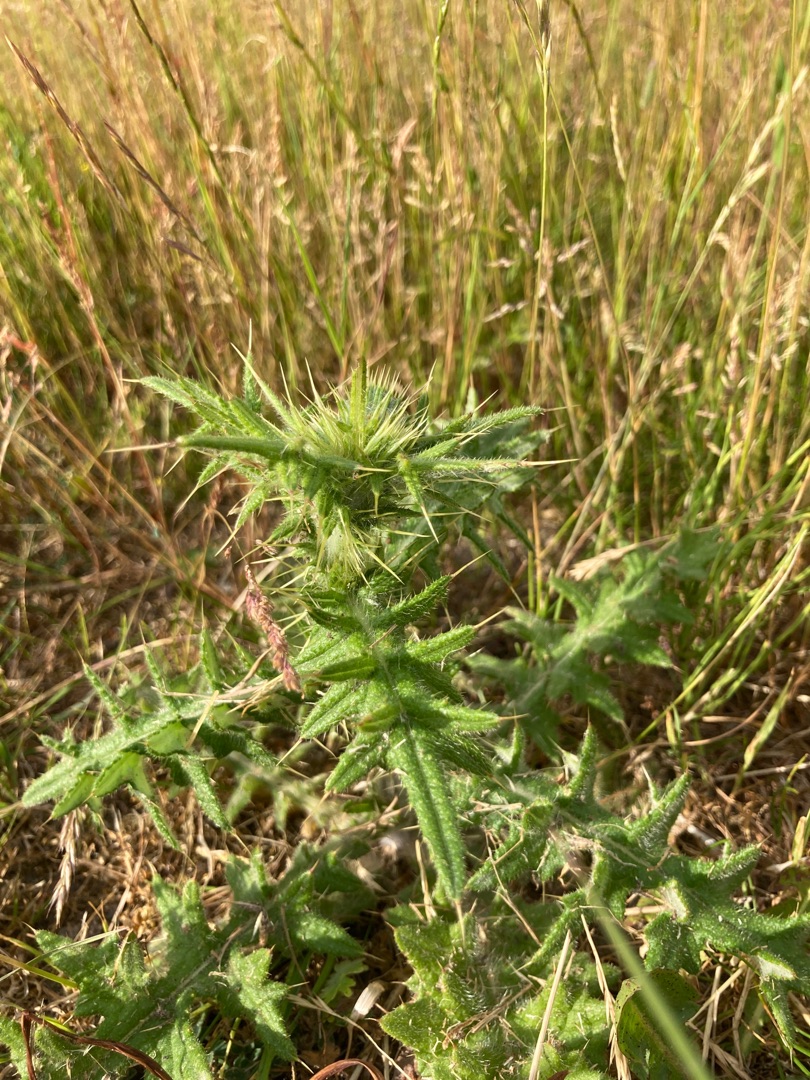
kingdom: Plantae
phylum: Tracheophyta
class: Magnoliopsida
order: Asterales
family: Asteraceae
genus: Cirsium
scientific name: Cirsium vulgare
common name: Horse-tidsel
